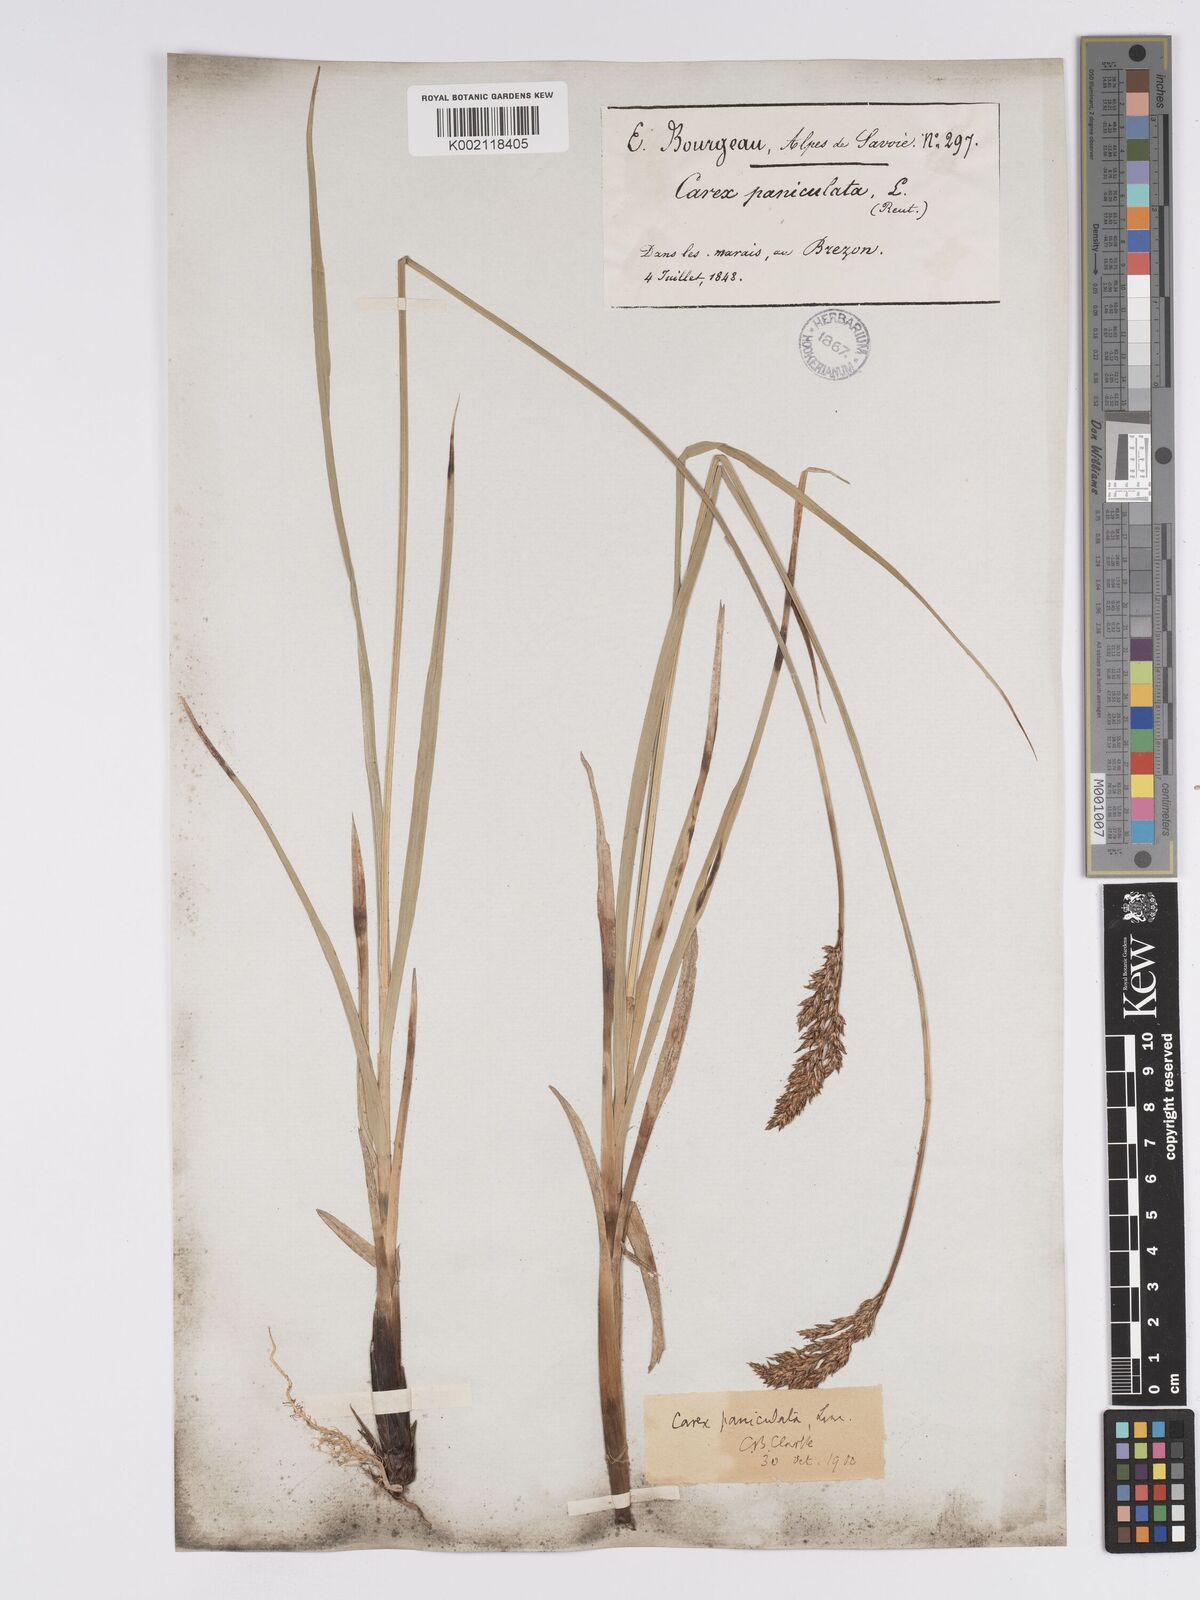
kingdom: Plantae
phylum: Tracheophyta
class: Liliopsida
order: Poales
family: Cyperaceae
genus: Carex
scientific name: Carex paniculata
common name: Greater tussock-sedge
